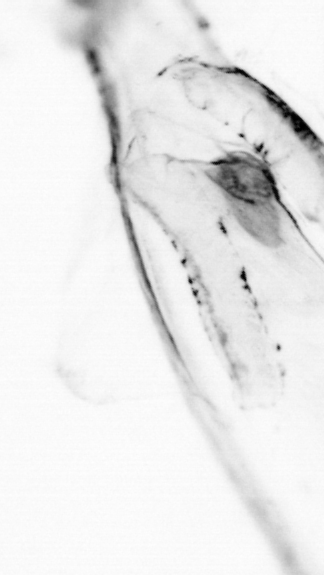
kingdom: Animalia
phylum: Chaetognatha
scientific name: Chaetognatha
